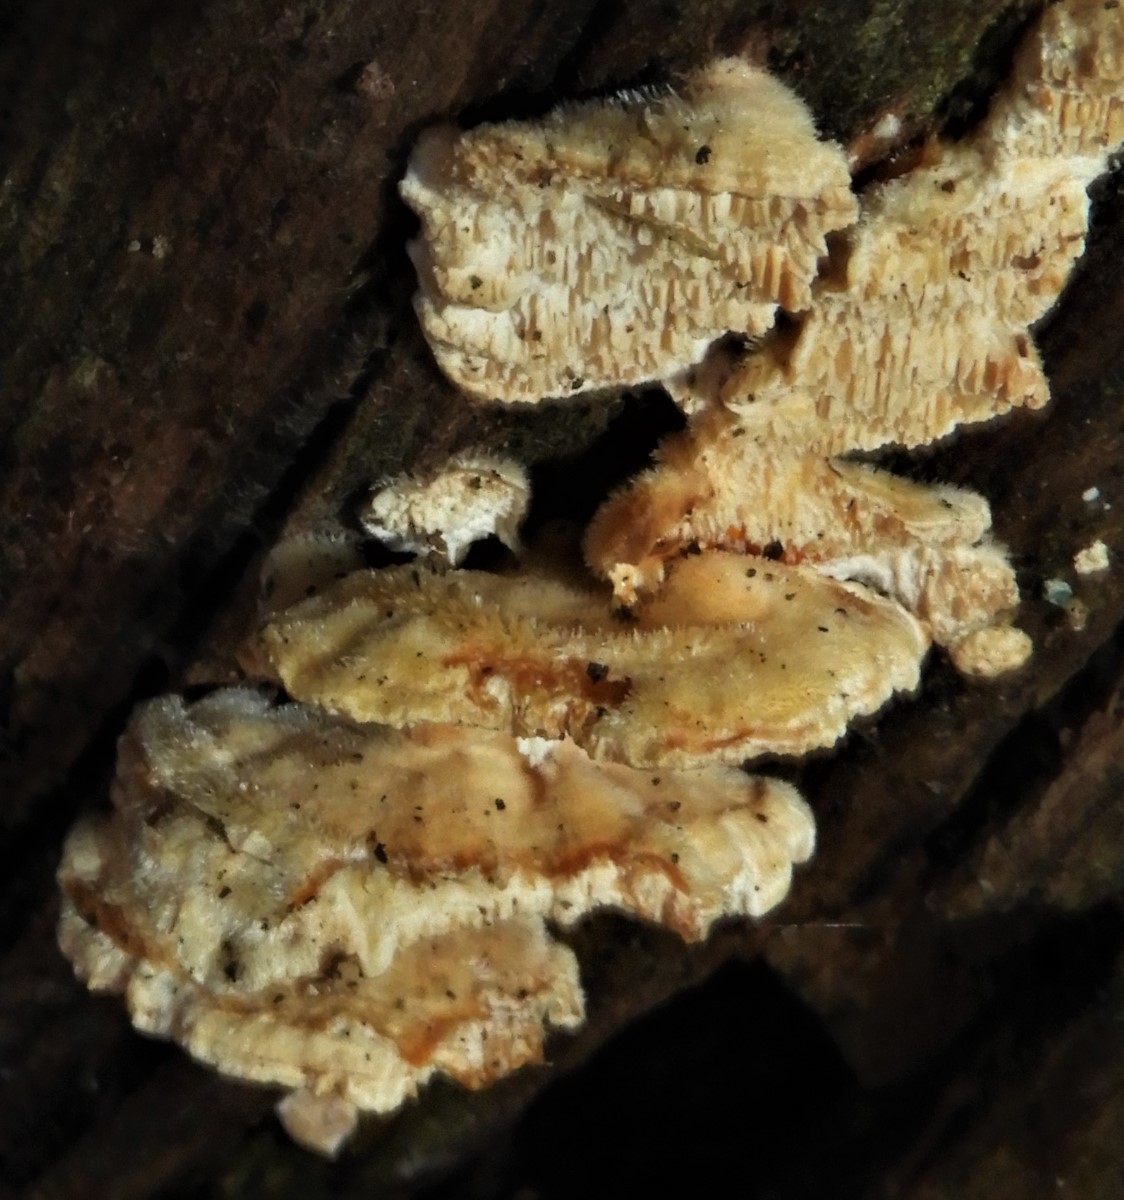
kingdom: Fungi
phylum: Basidiomycota
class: Agaricomycetes
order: Polyporales
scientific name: Polyporales
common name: poresvampordenen
